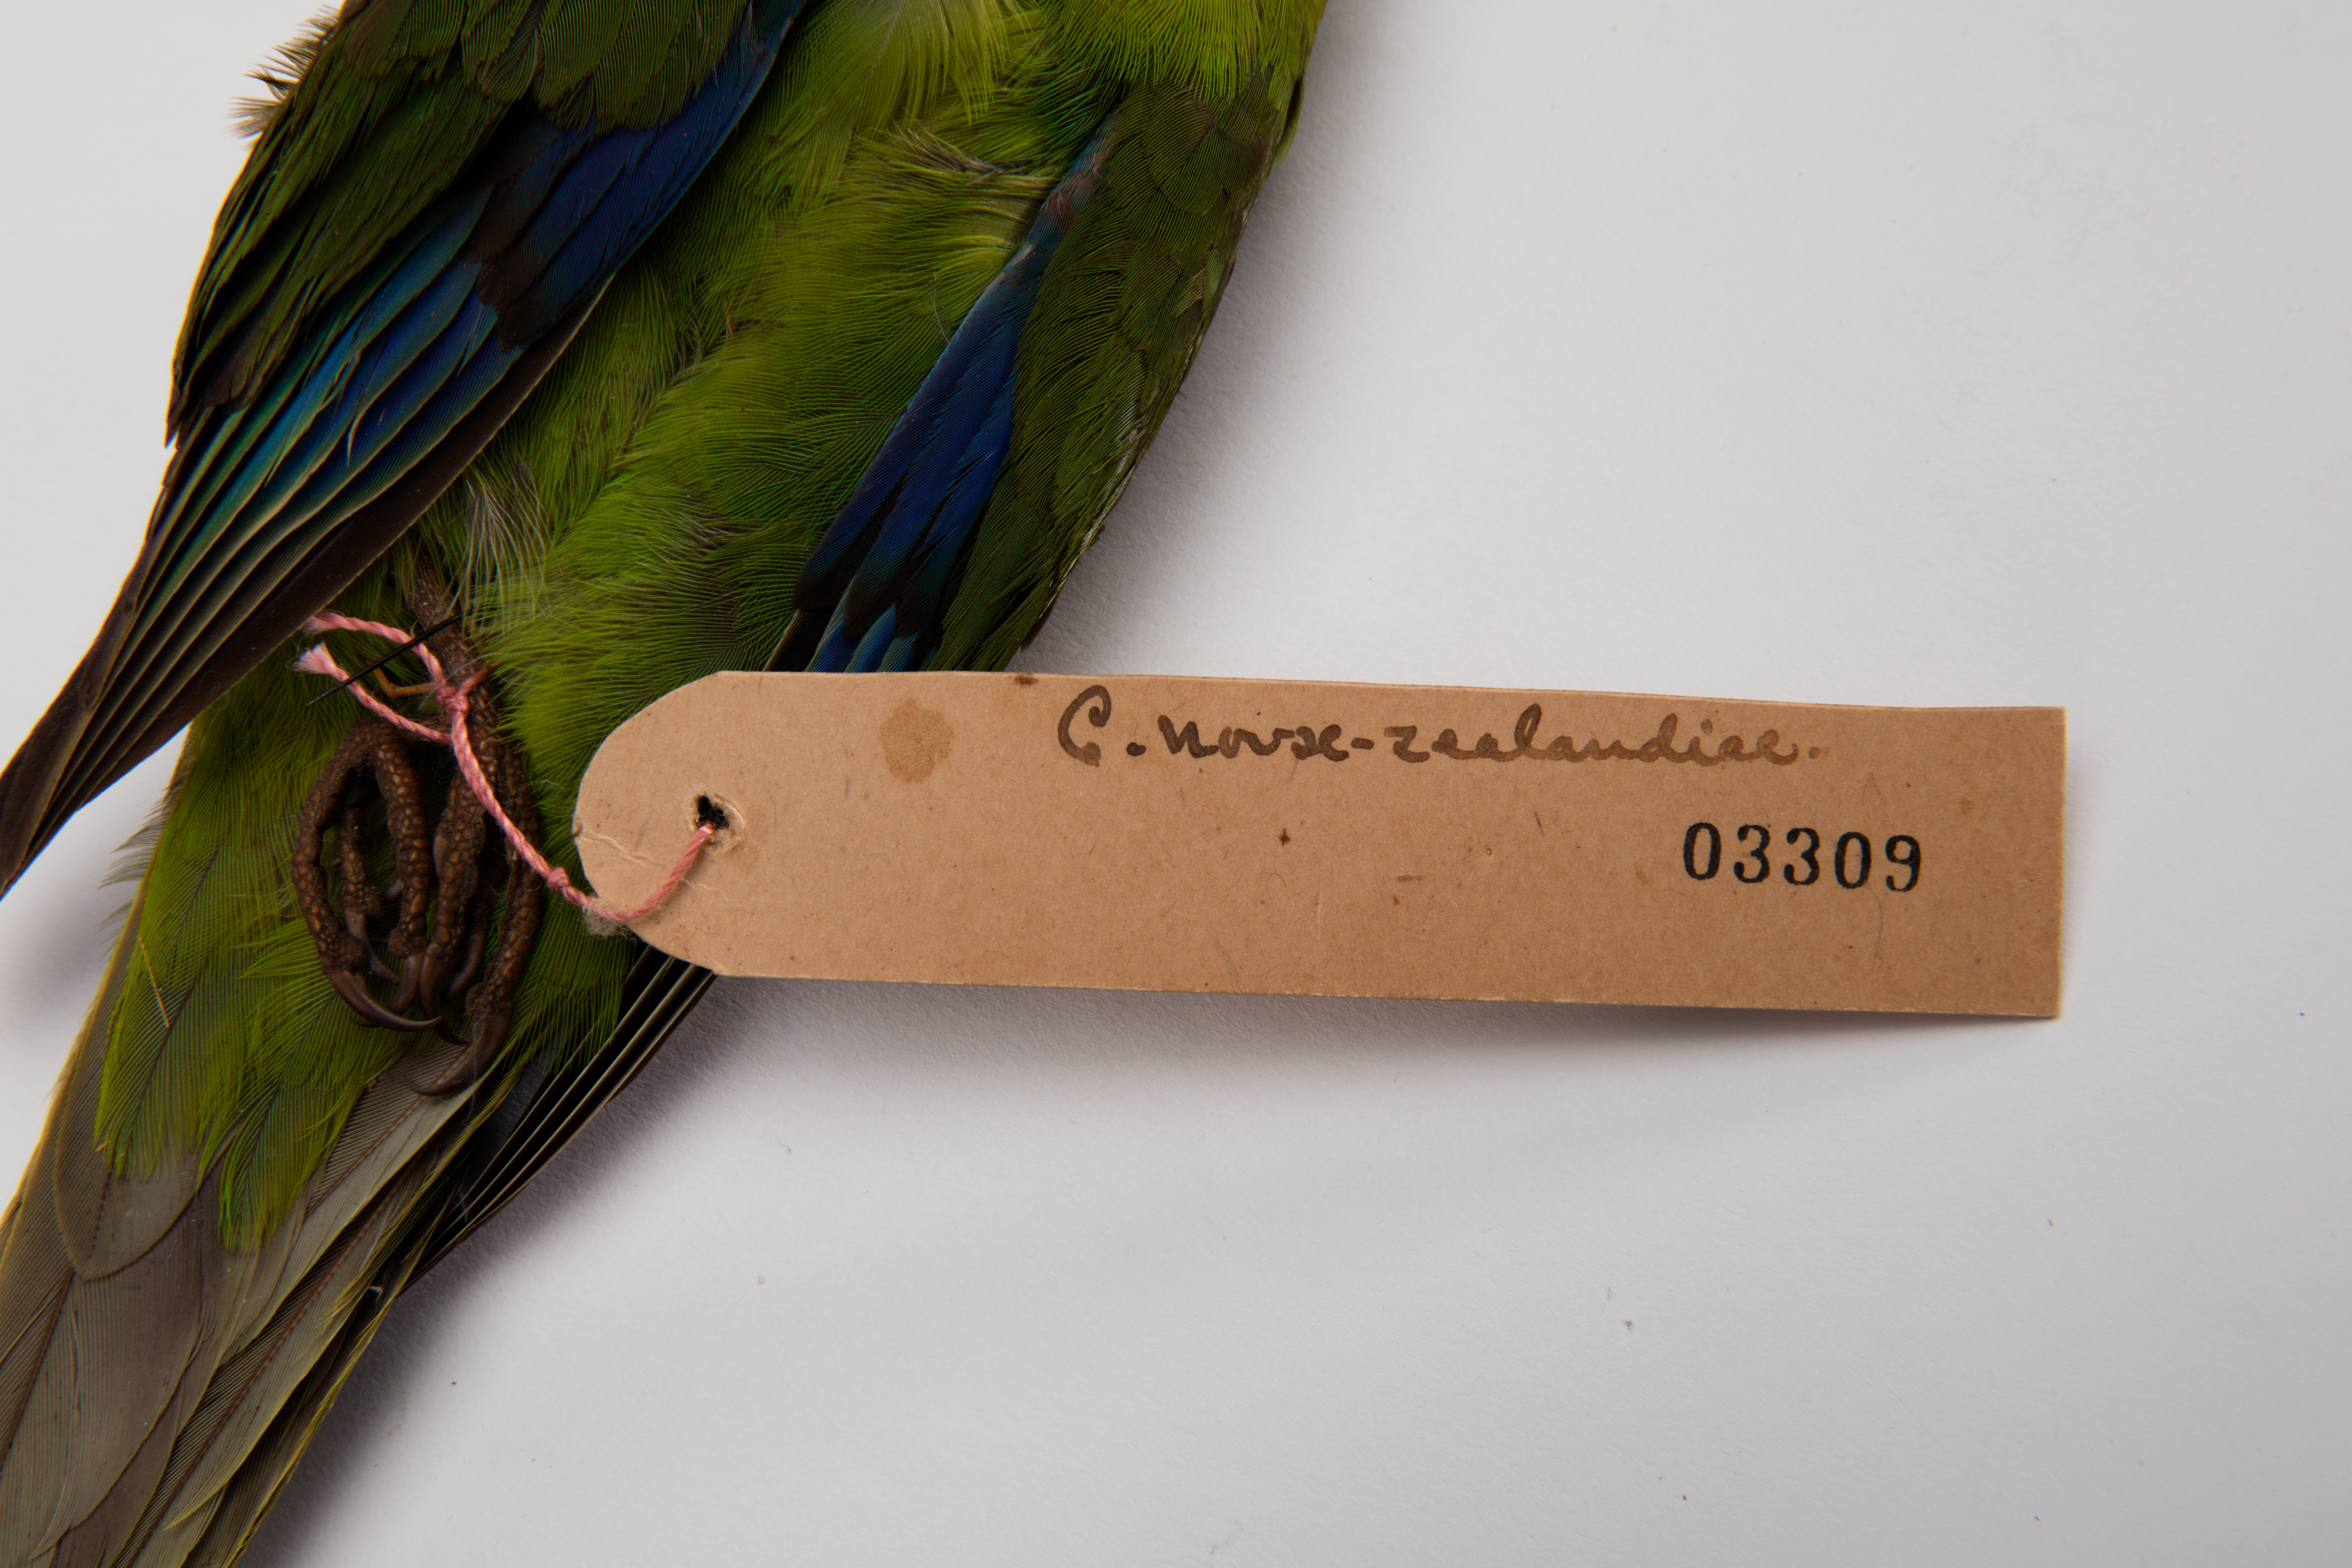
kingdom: Animalia
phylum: Chordata
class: Aves
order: Psittaciformes
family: Psittacidae
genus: Cyanoramphus
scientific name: Cyanoramphus novaezelandiae
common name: Red-fronted parakeet
